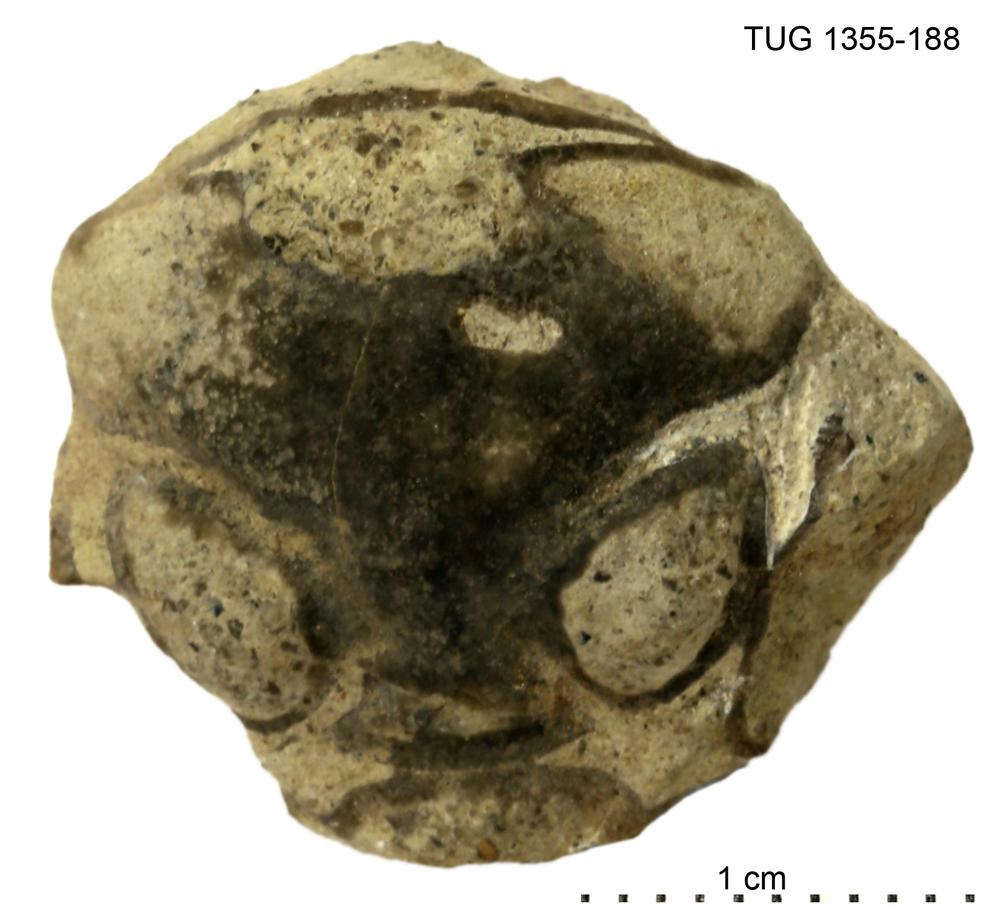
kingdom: Animalia
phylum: Arthropoda
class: Trilobita
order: Phacopida
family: Pterygometopidae
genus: Chasmops
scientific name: Chasmops macrourus
